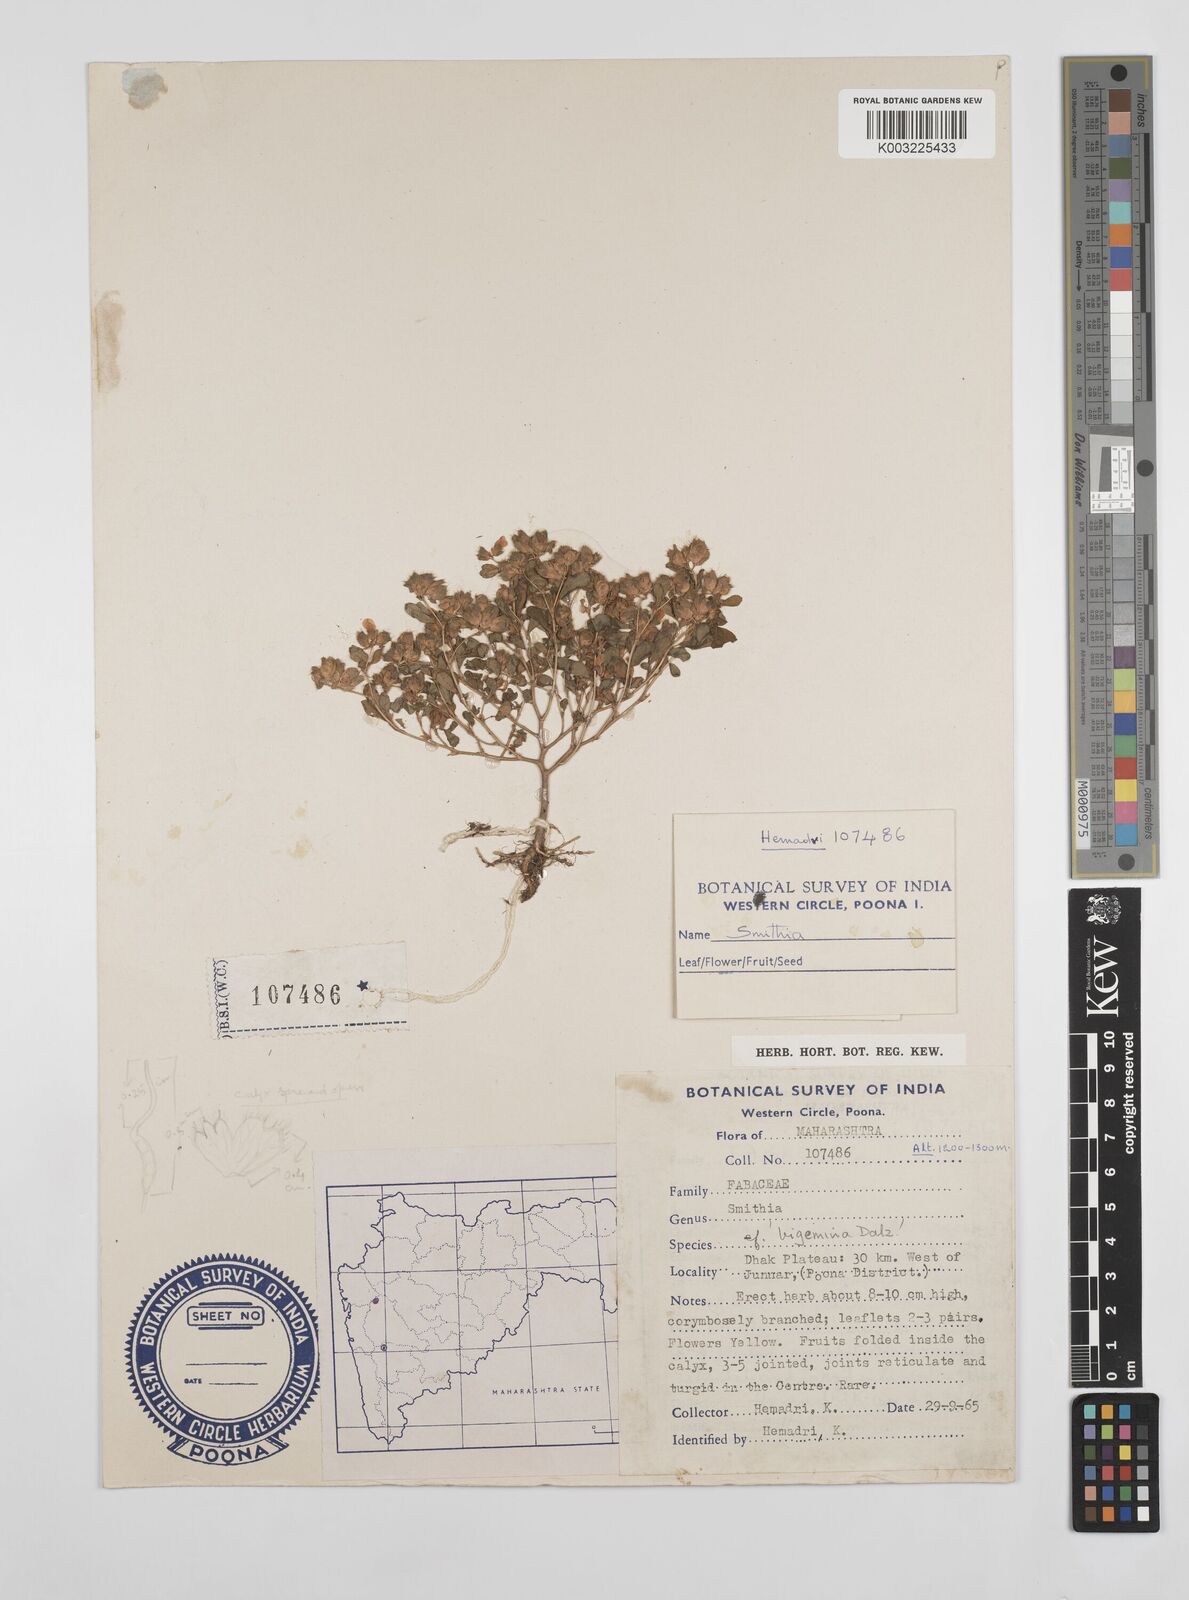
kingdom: Plantae
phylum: Tracheophyta
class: Magnoliopsida
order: Fabales
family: Fabaceae
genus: Smithia
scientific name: Smithia bigemina
